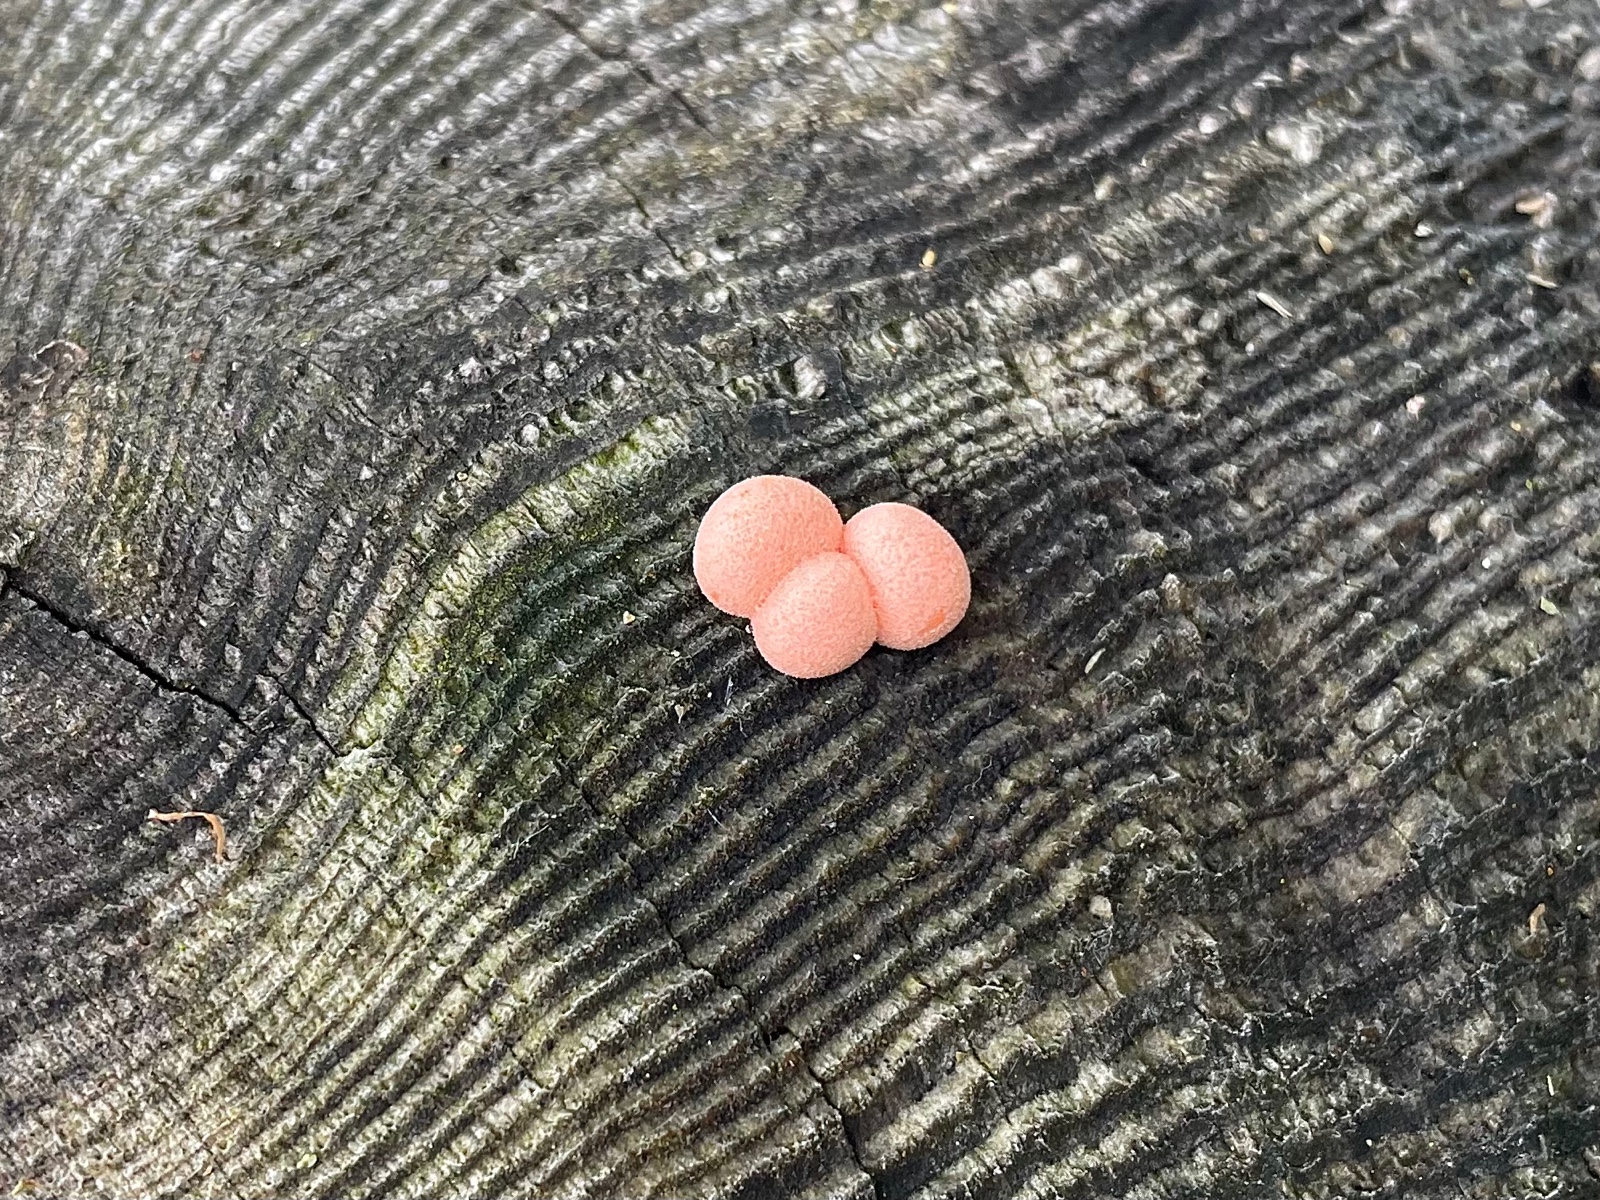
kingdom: Protozoa
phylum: Mycetozoa
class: Myxomycetes
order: Cribrariales
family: Tubiferaceae
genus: Lycogala
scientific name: Lycogala epidendrum
